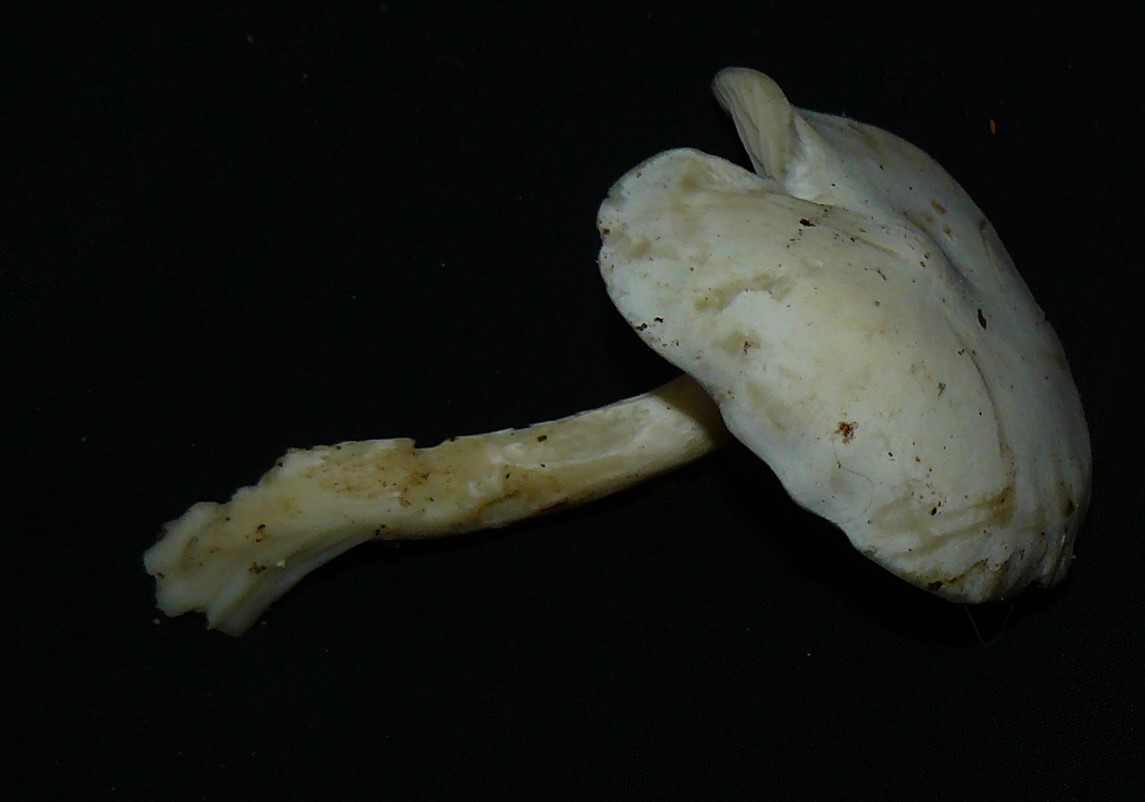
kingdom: Fungi
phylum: Basidiomycota
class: Agaricomycetes
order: Agaricales
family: Tricholomataceae
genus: Leucocybe
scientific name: Leucocybe connata
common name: knippe-tragthat
